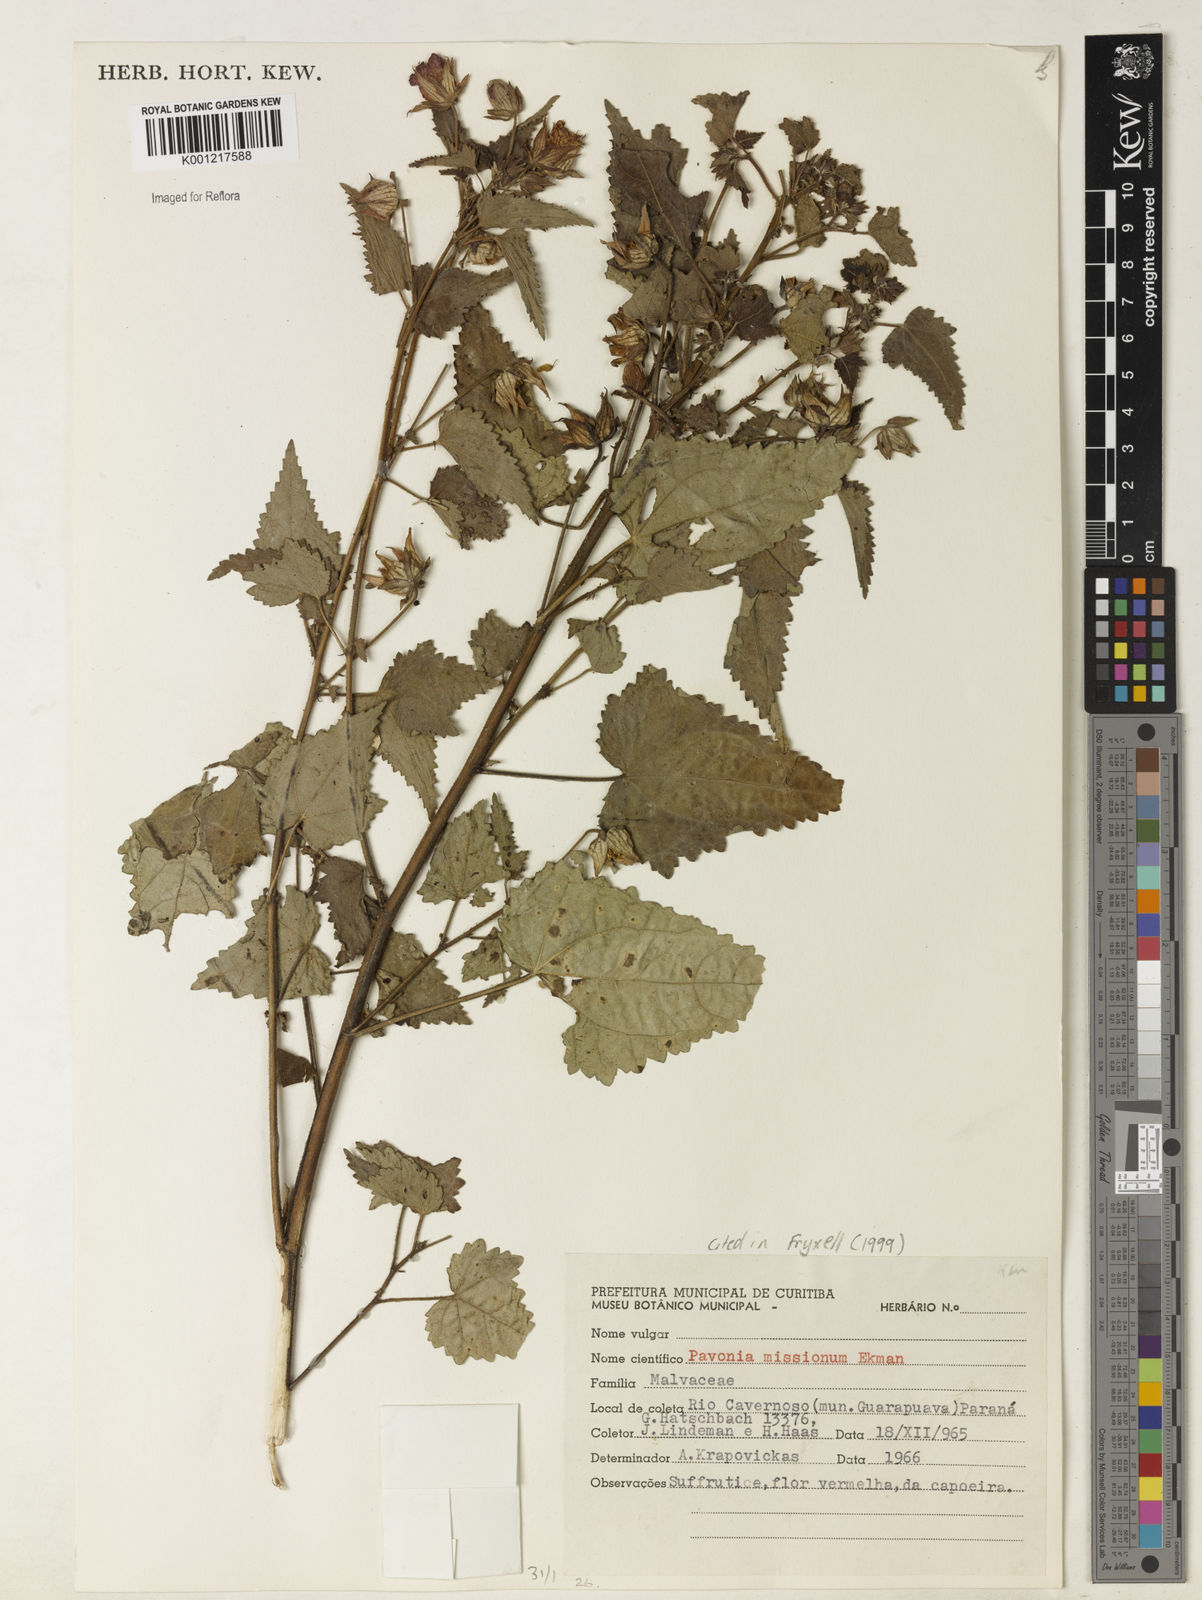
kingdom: Plantae
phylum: Tracheophyta
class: Magnoliopsida
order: Malvales
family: Malvaceae
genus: Pavonia
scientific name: Pavonia missionum
